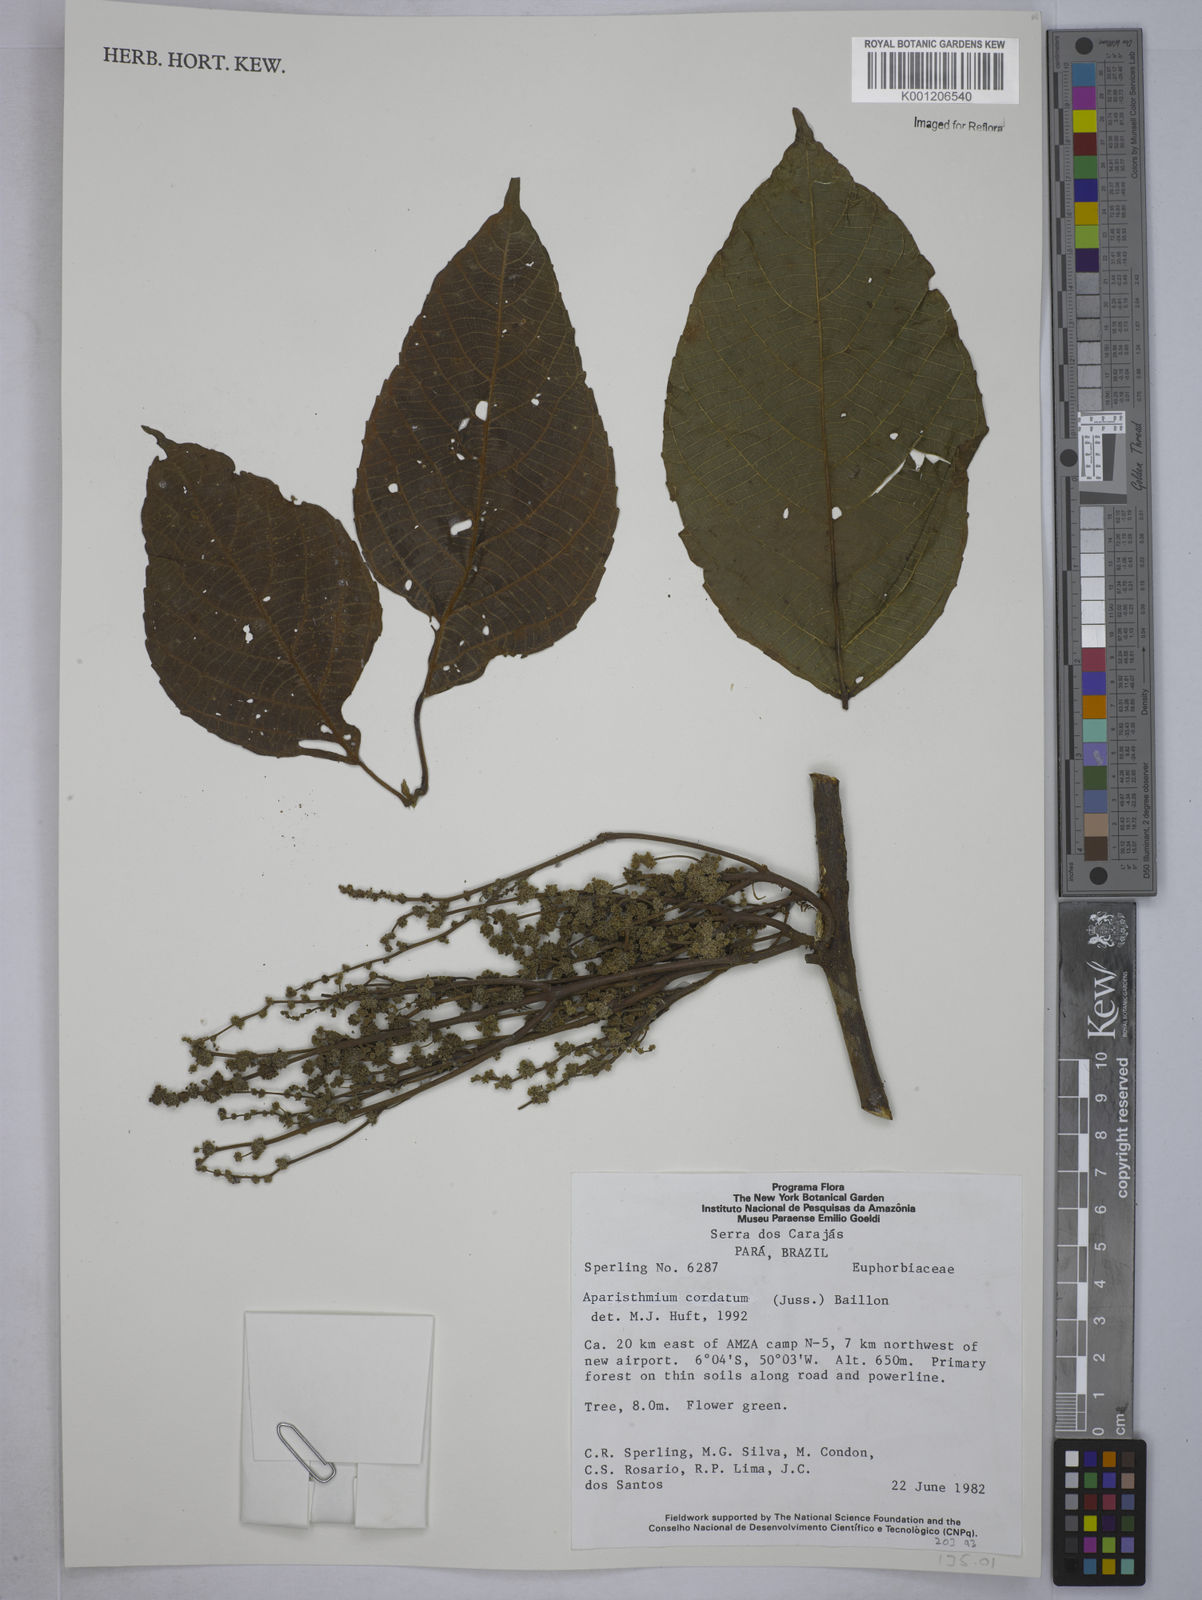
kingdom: Plantae
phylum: Tracheophyta
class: Magnoliopsida
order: Malpighiales
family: Euphorbiaceae
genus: Aparisthmium
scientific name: Aparisthmium cordatum
